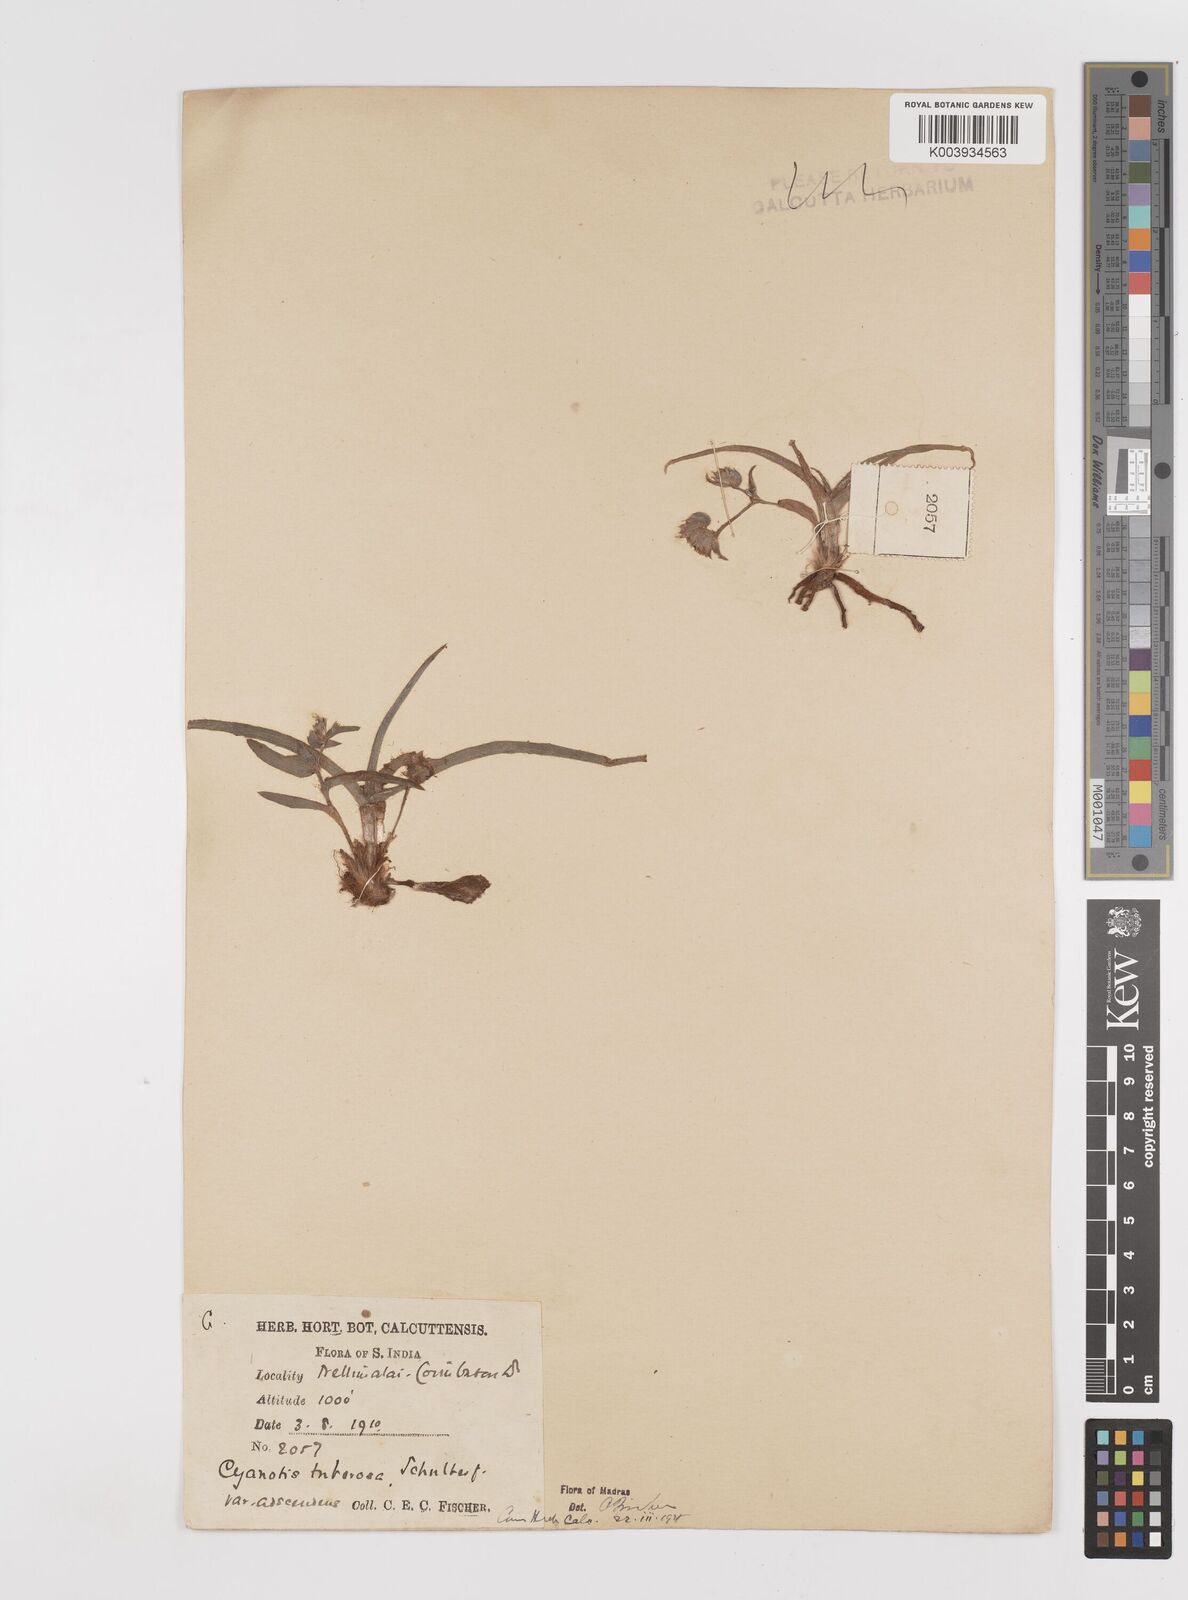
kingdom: Plantae
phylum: Tracheophyta
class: Liliopsida
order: Commelinales
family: Commelinaceae
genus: Cyanotis
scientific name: Cyanotis tuberosa
